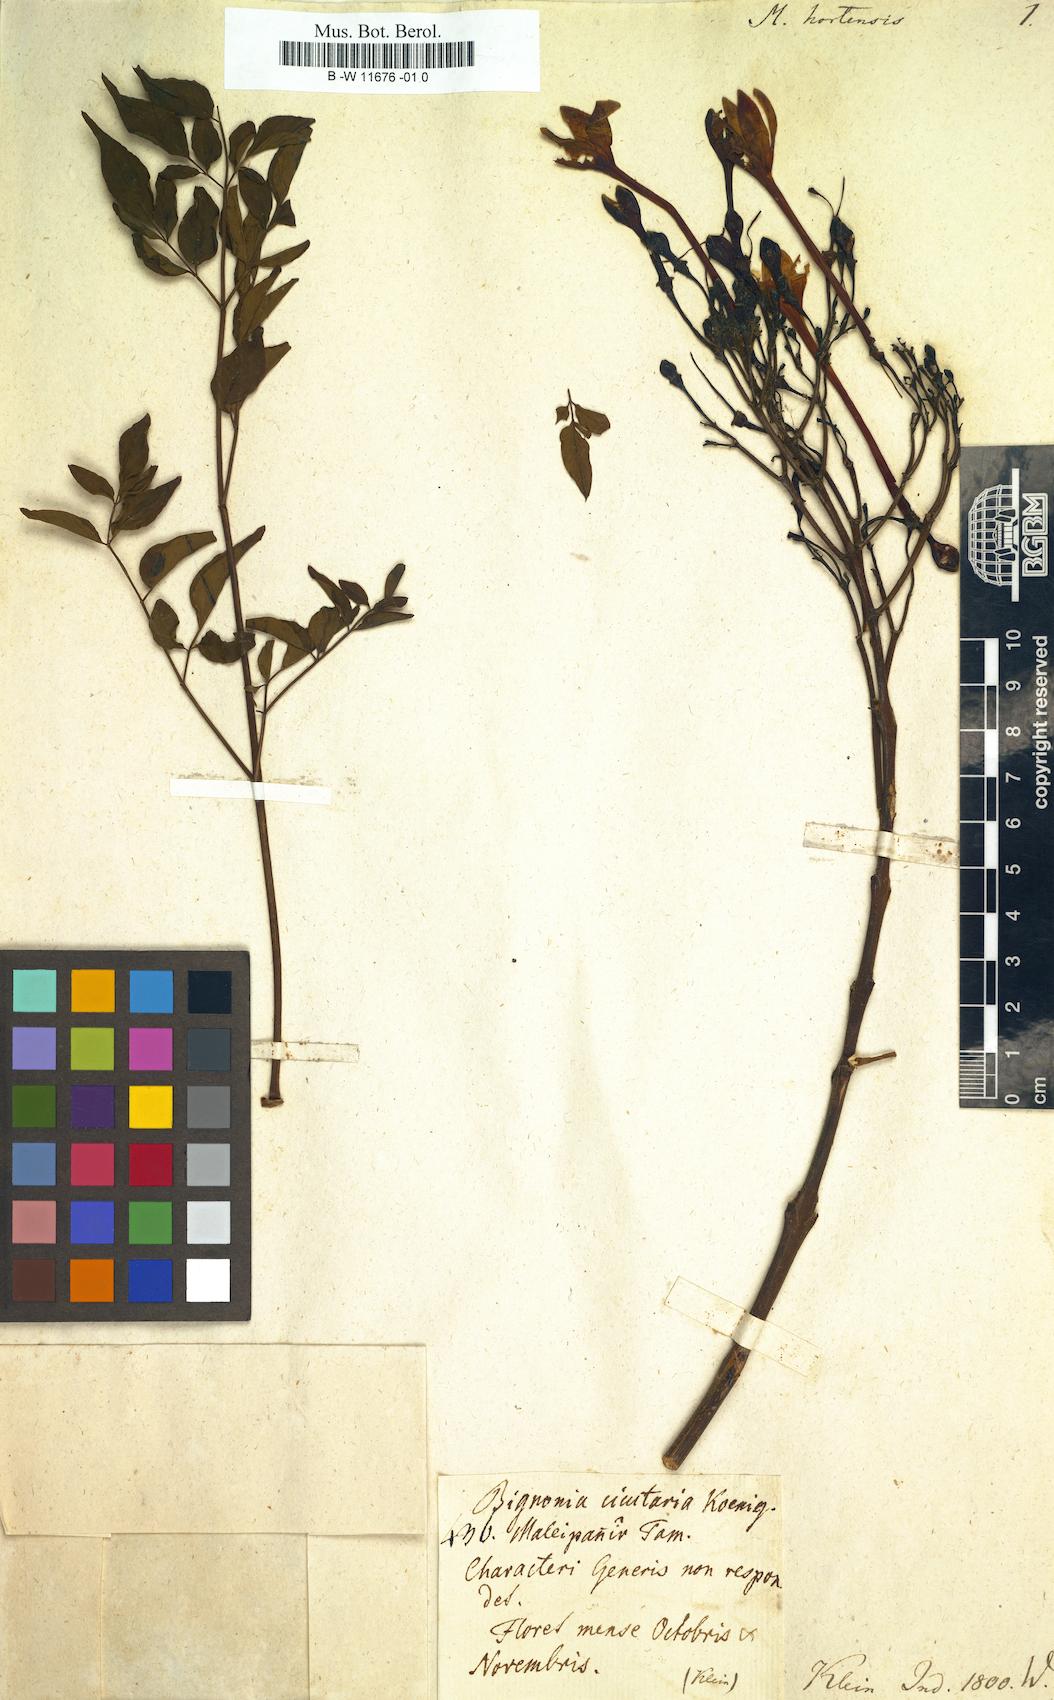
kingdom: Plantae
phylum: Tracheophyta
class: Magnoliopsida
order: Lamiales
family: Bignoniaceae
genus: Millingtonia
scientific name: Millingtonia hortensis
